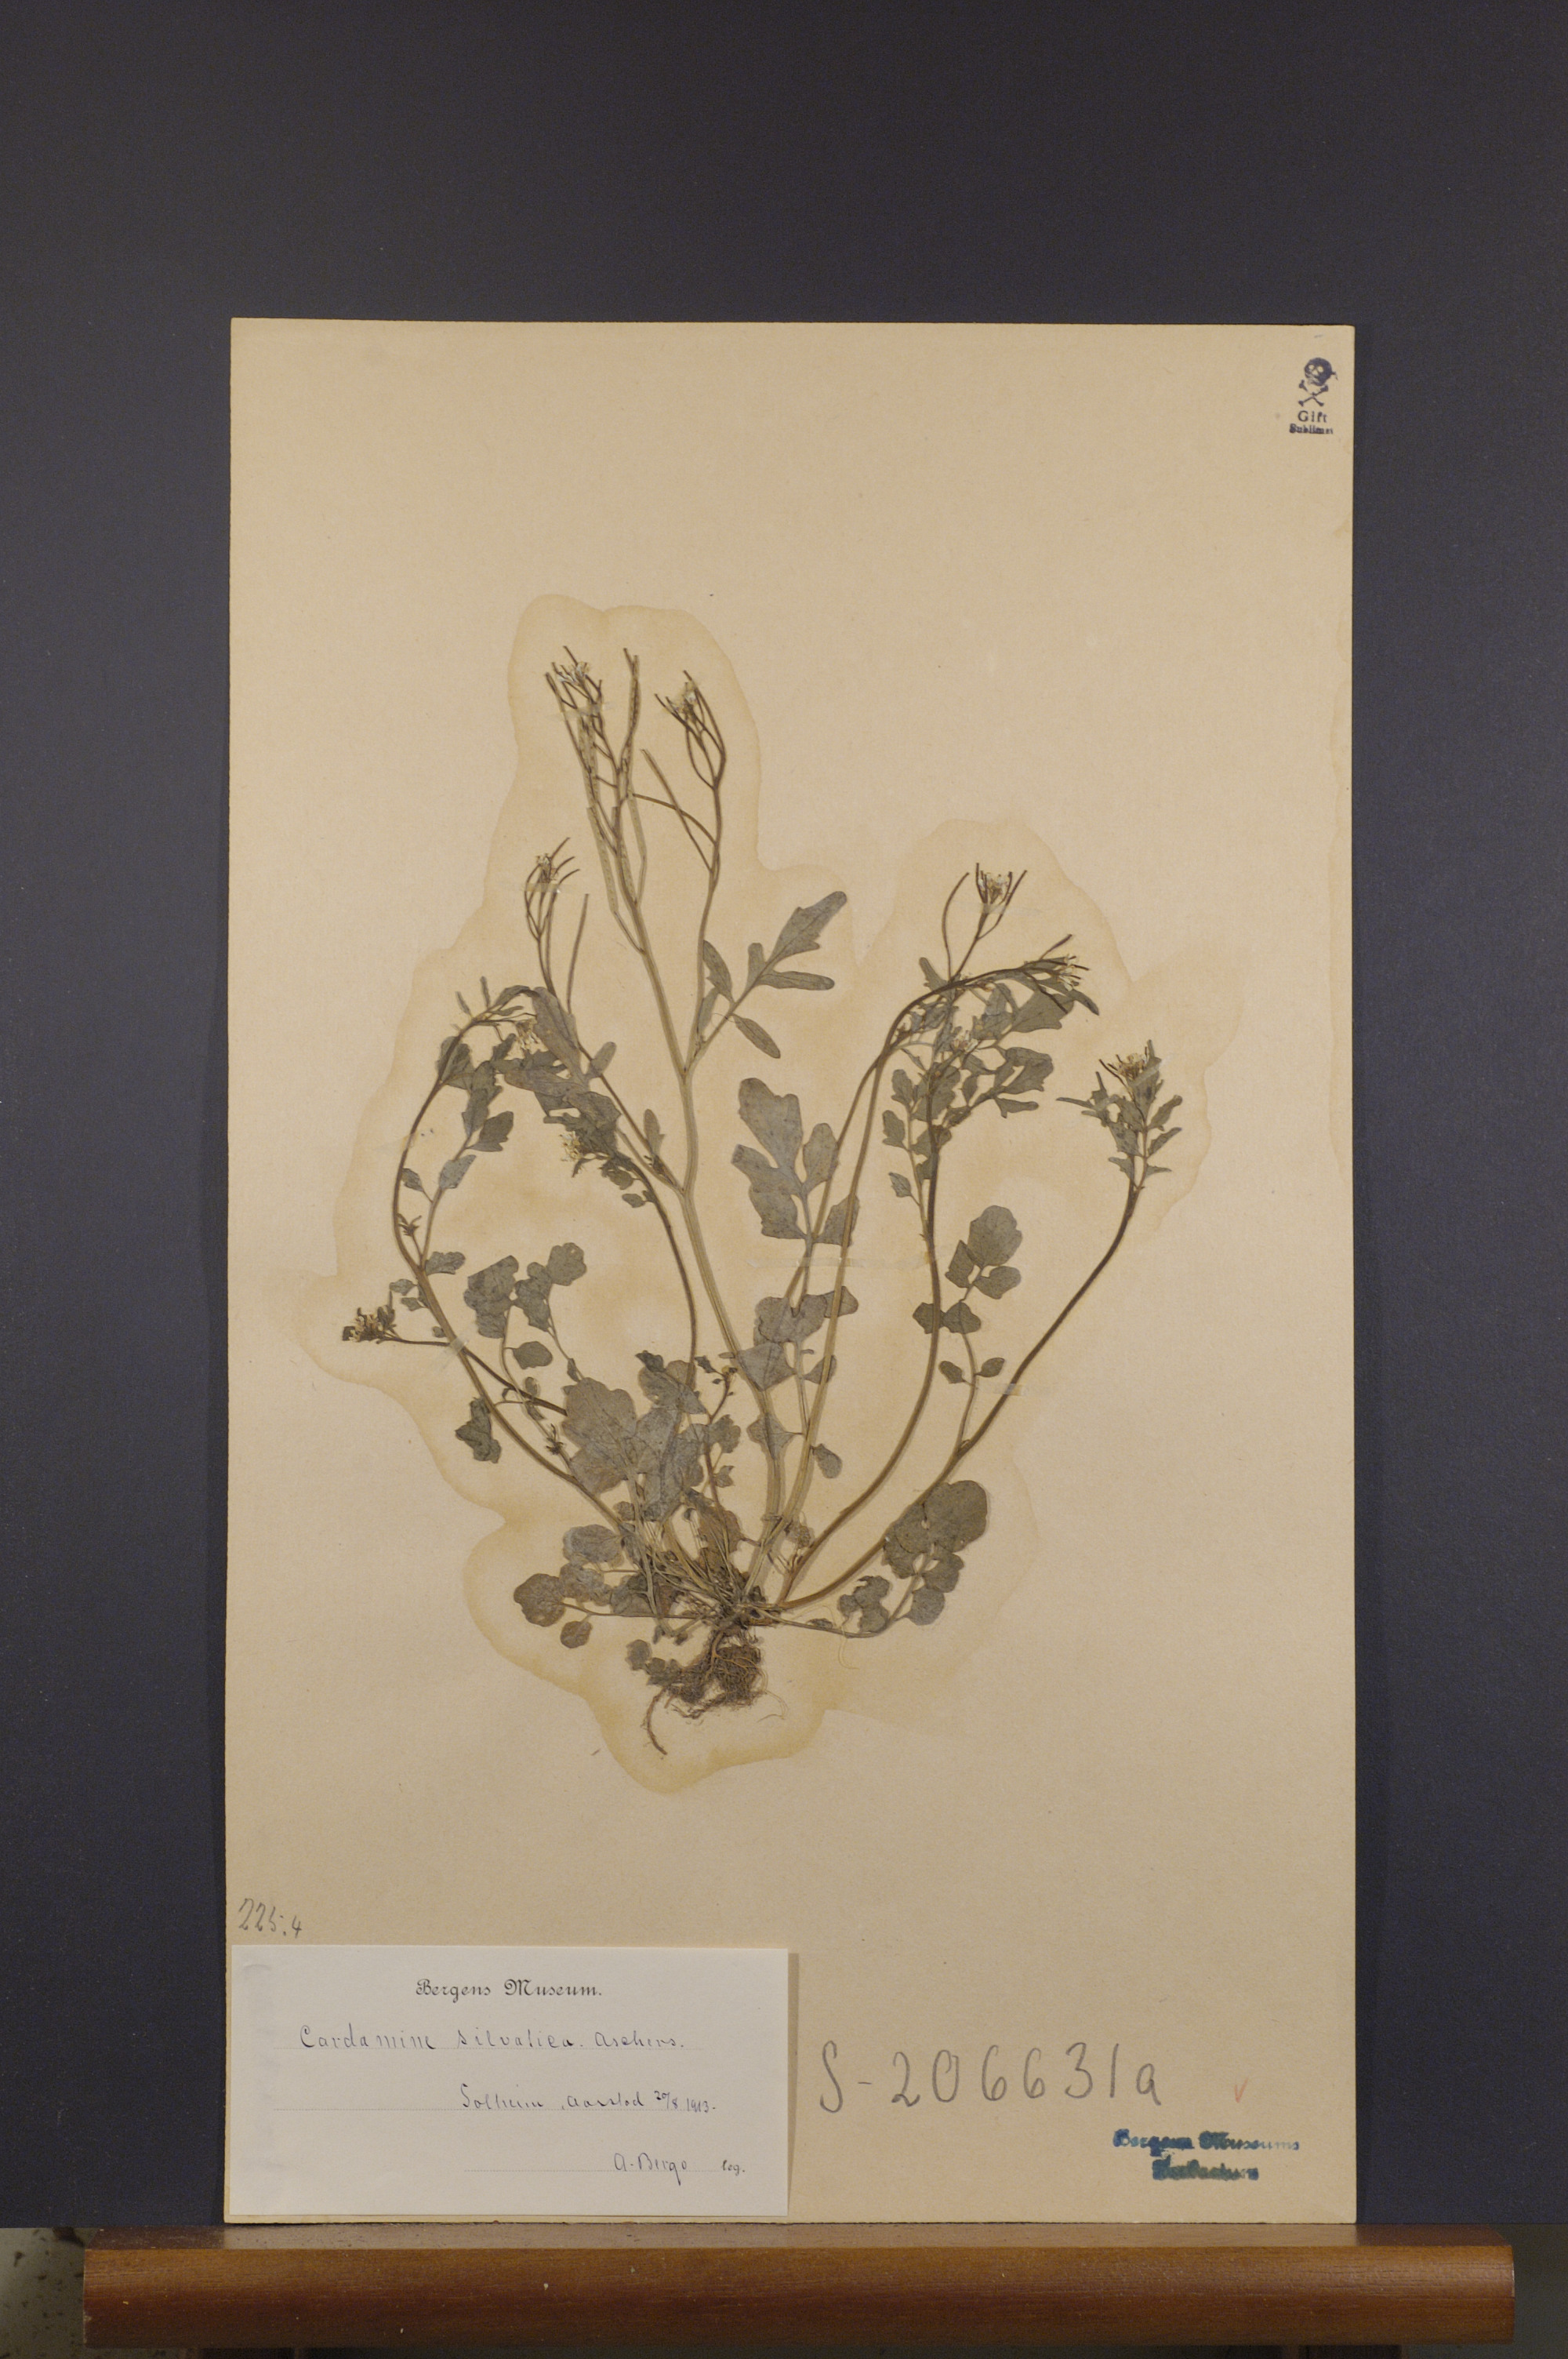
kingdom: Plantae
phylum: Tracheophyta
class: Magnoliopsida
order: Brassicales
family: Brassicaceae
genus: Cardamine
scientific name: Cardamine flexuosa
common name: Woodland bittercress
